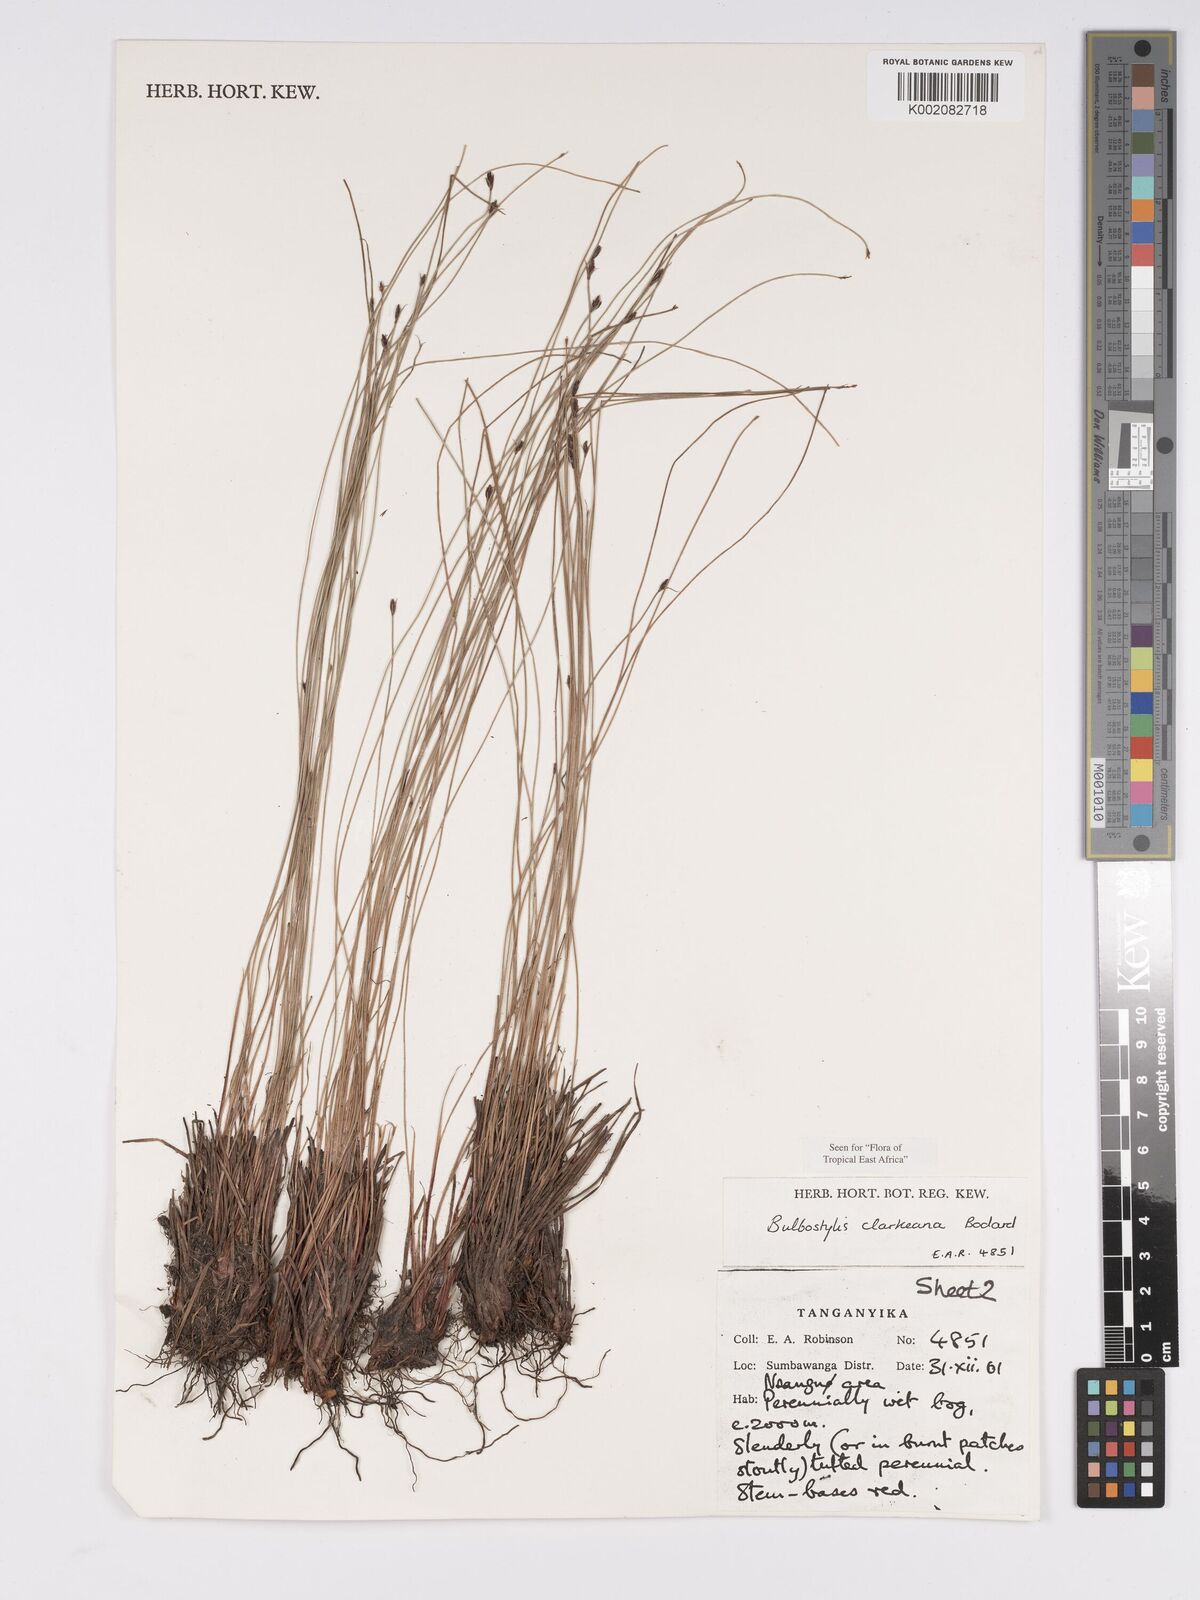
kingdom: Plantae
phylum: Tracheophyta
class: Liliopsida
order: Poales
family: Cyperaceae
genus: Bulbostylis
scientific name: Bulbostylis clarkeana
